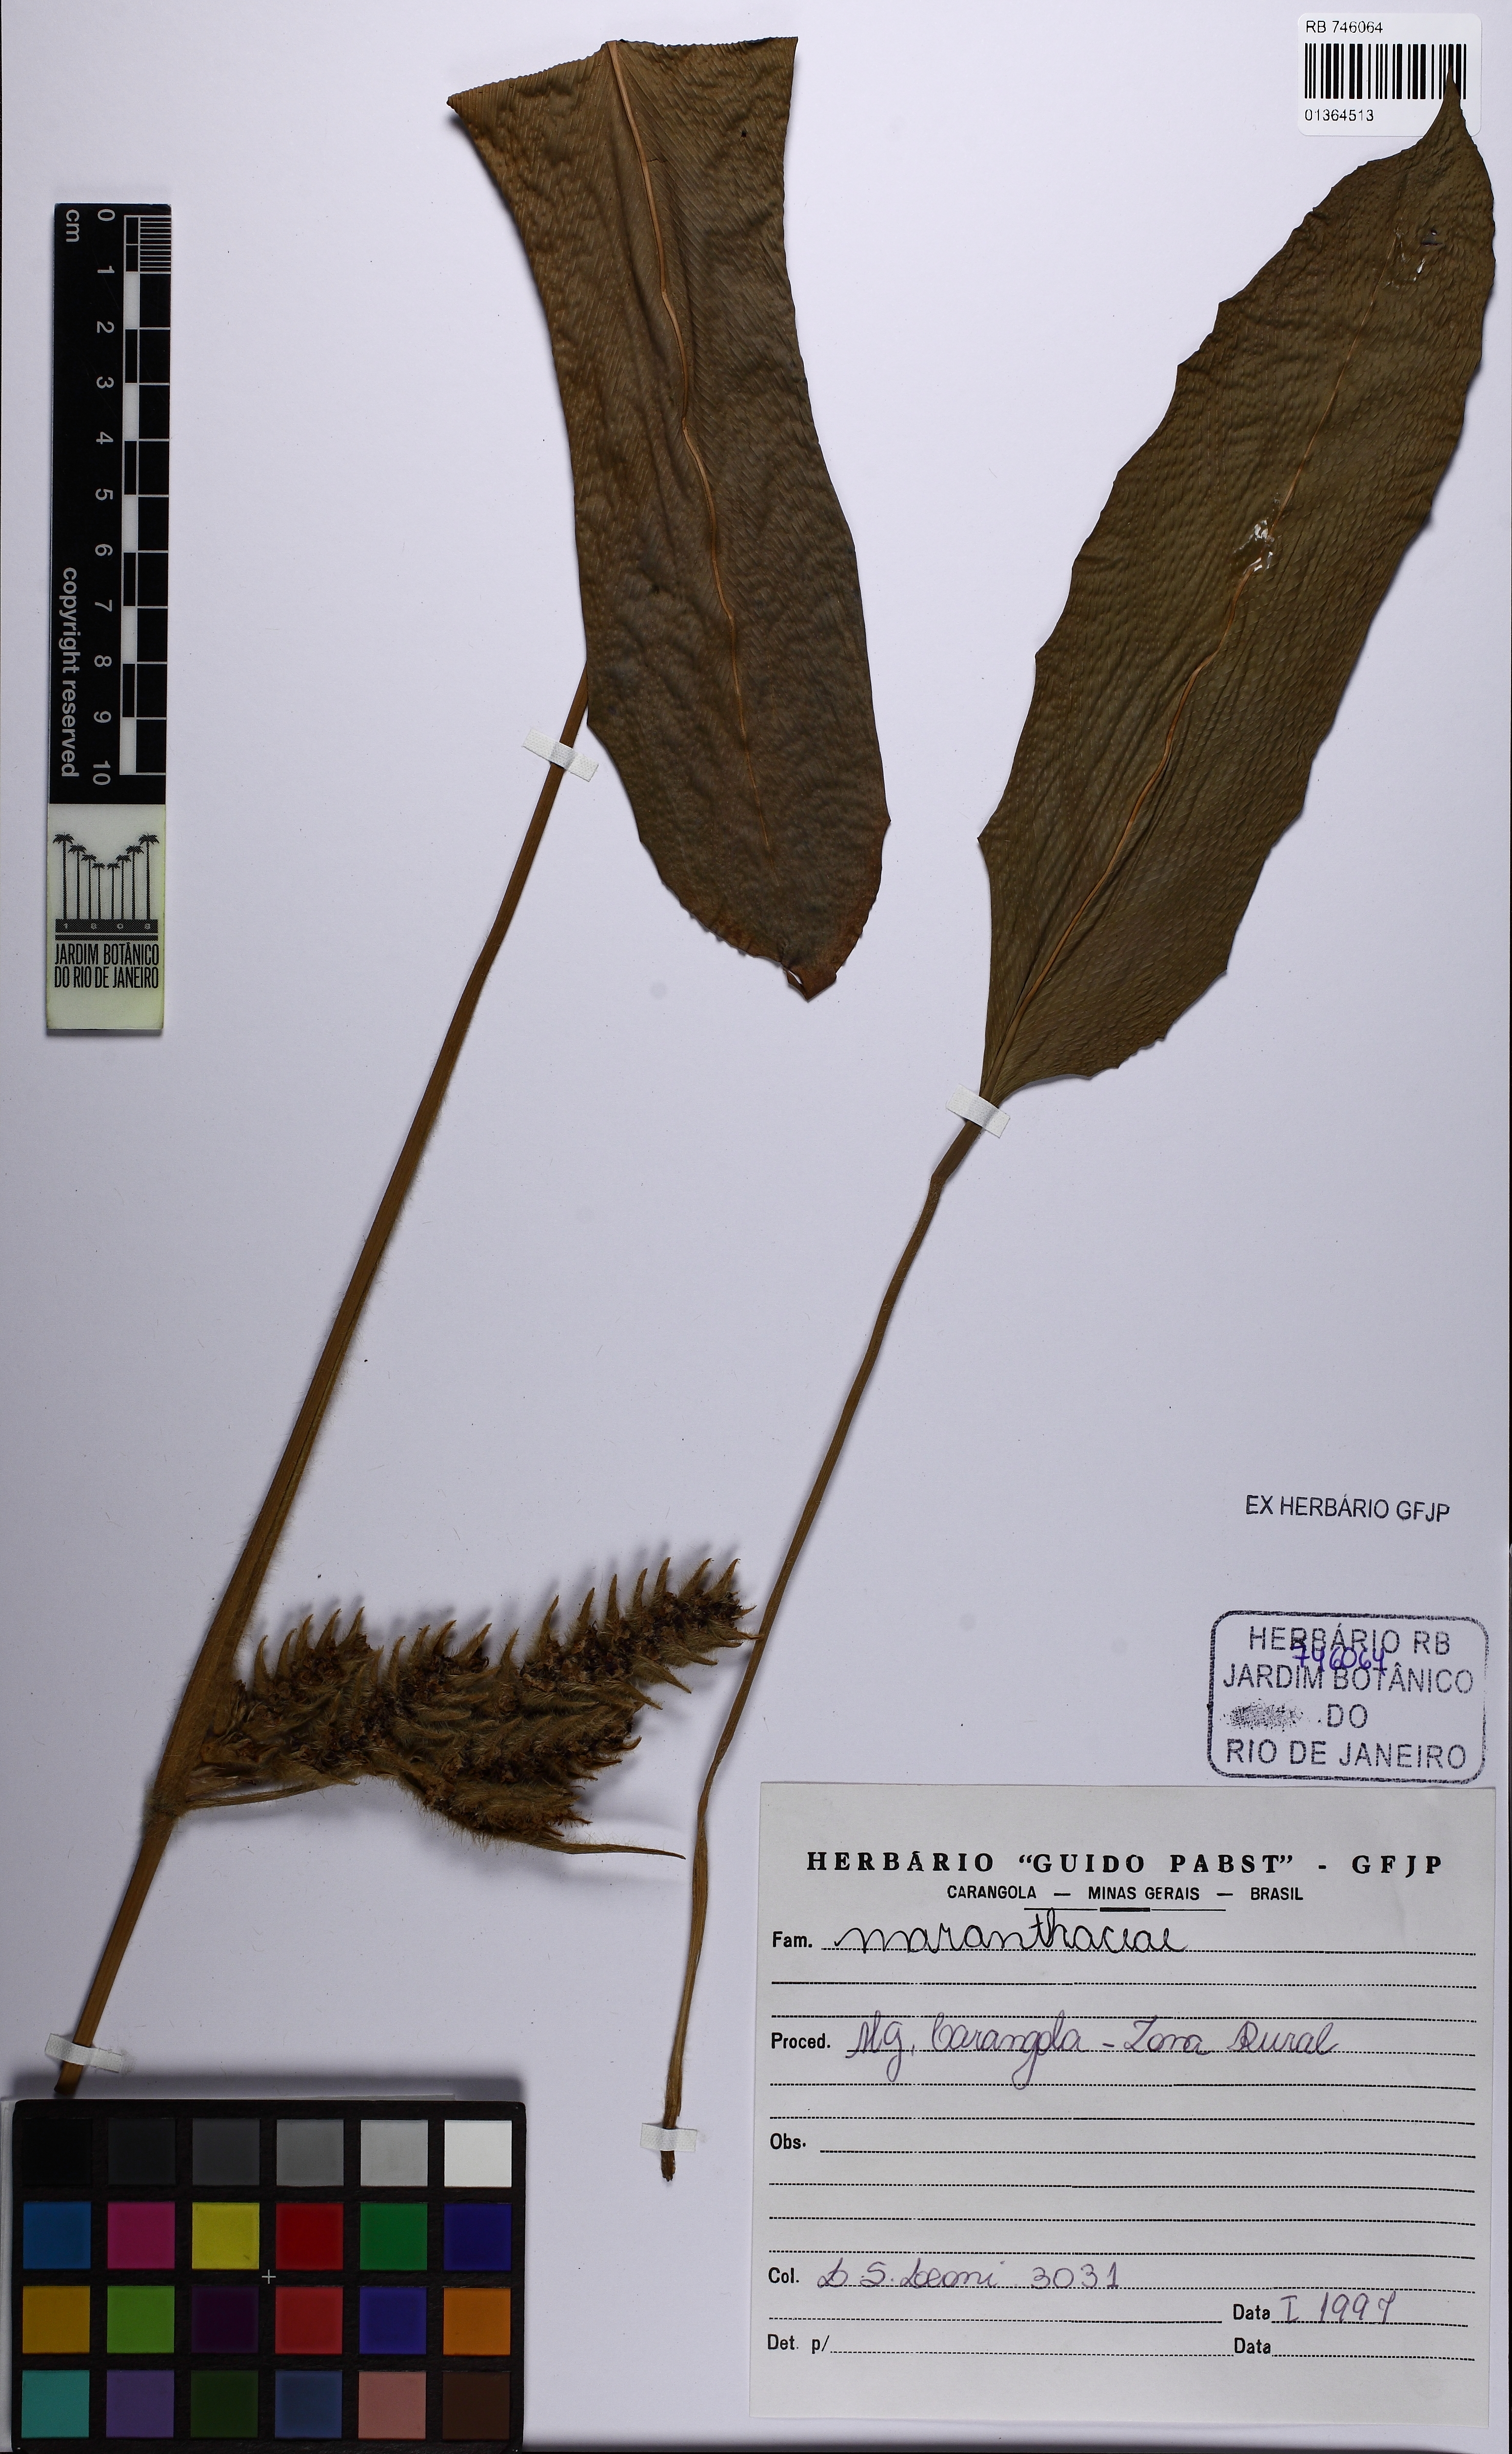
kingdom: Plantae
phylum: Tracheophyta
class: Liliopsida
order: Zingiberales
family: Marantaceae
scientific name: Marantaceae
